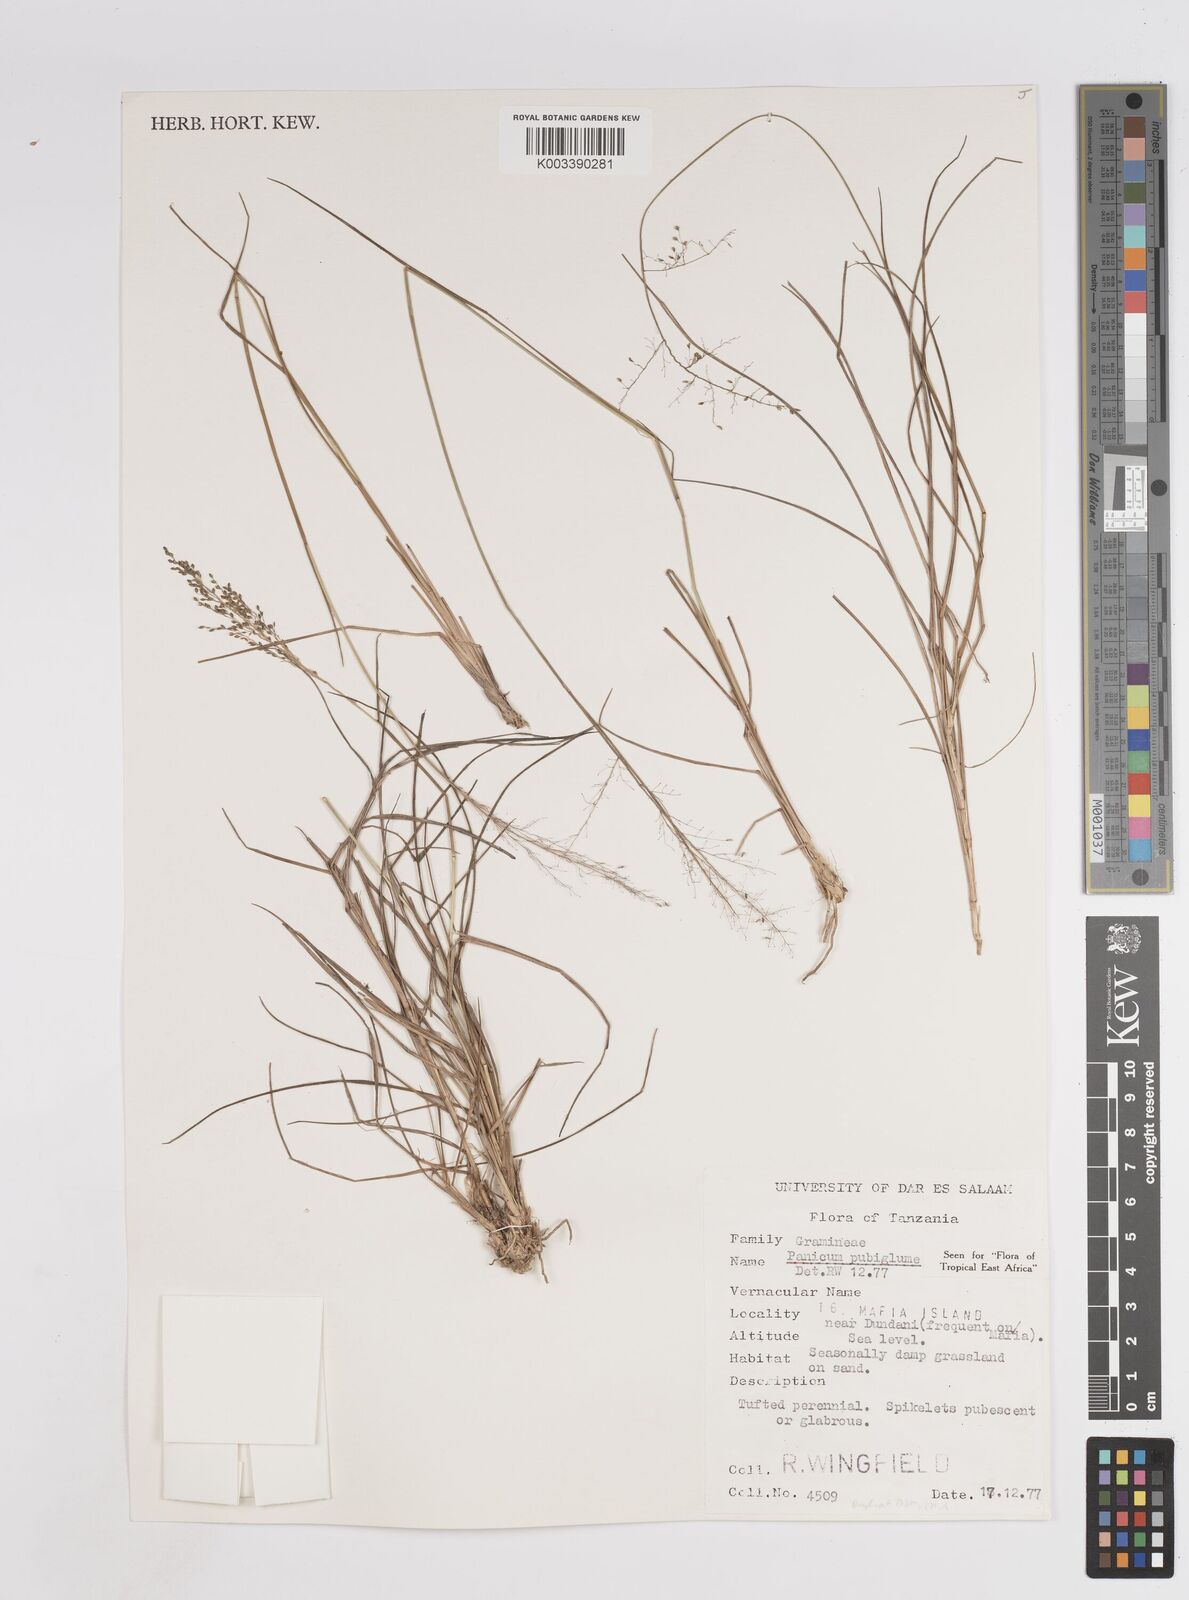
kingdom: Plantae
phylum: Tracheophyta
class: Liliopsida
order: Poales
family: Poaceae
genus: Trichanthecium
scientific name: Trichanthecium brazzavillense
